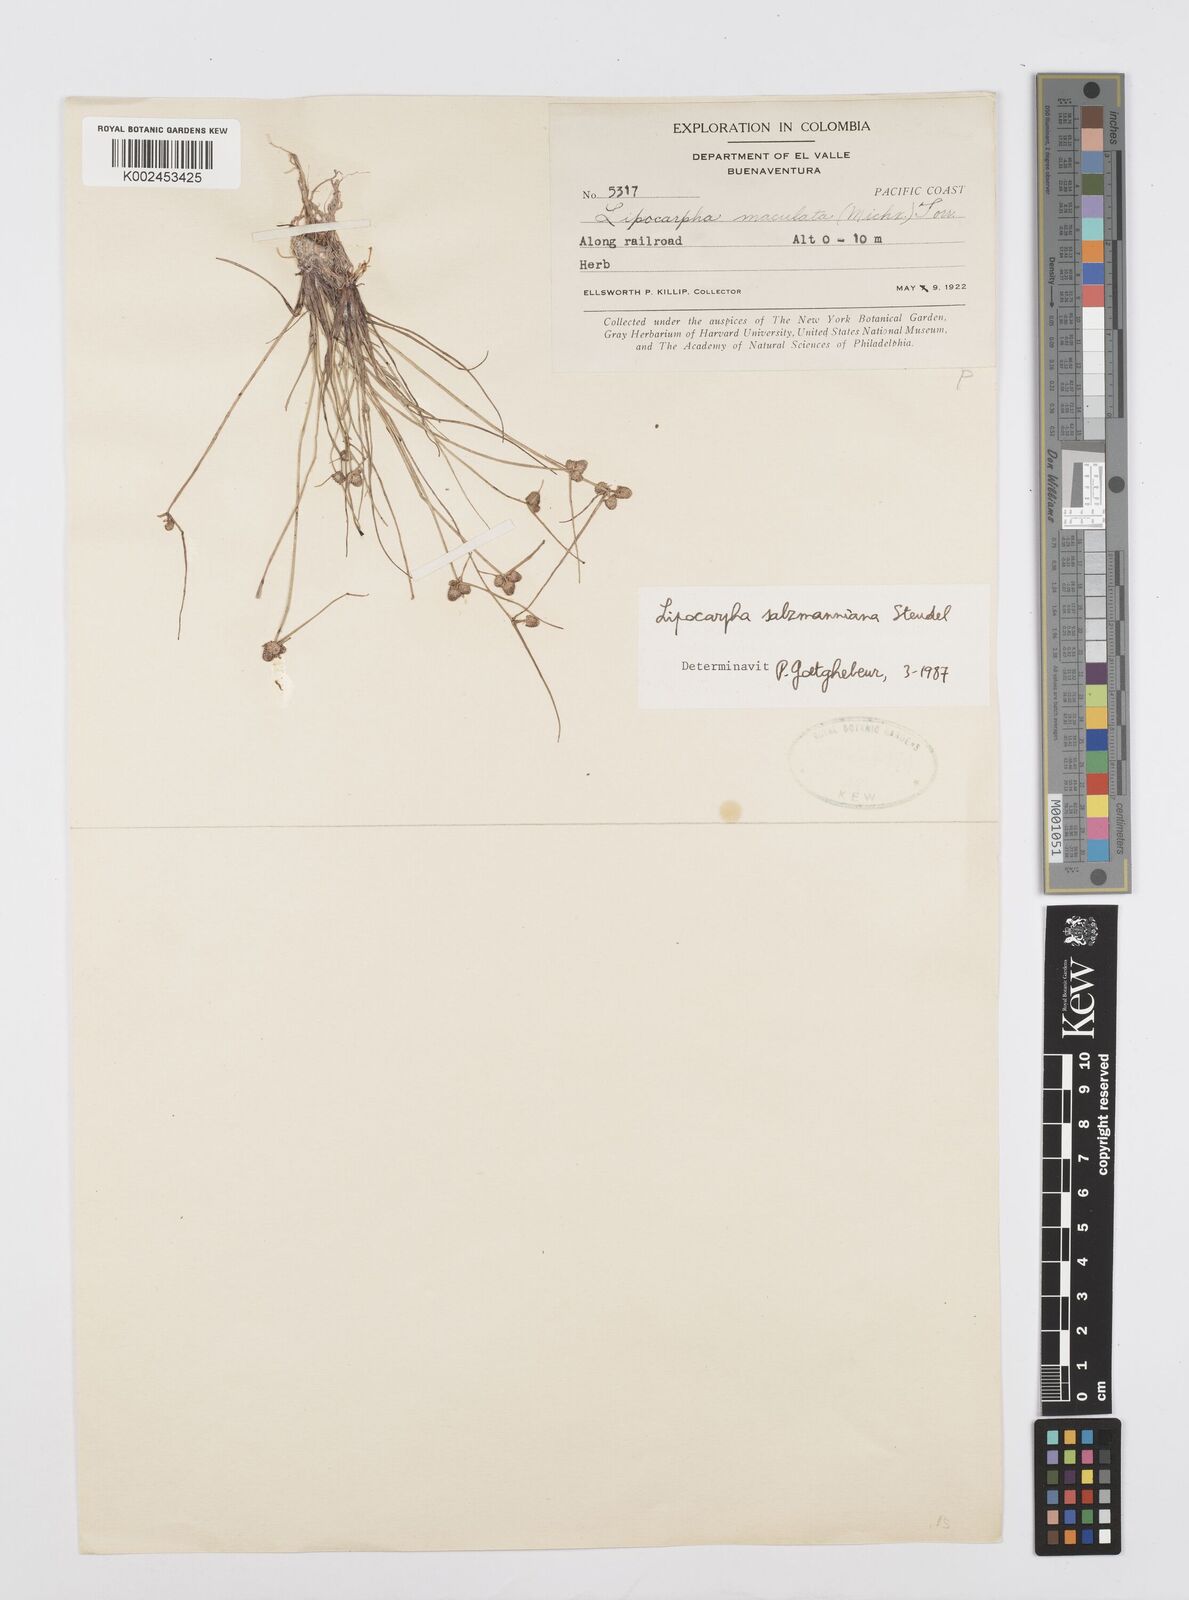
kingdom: Plantae
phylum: Tracheophyta
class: Liliopsida
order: Poales
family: Cyperaceae
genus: Cyperus
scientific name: Cyperus salzmannianus
